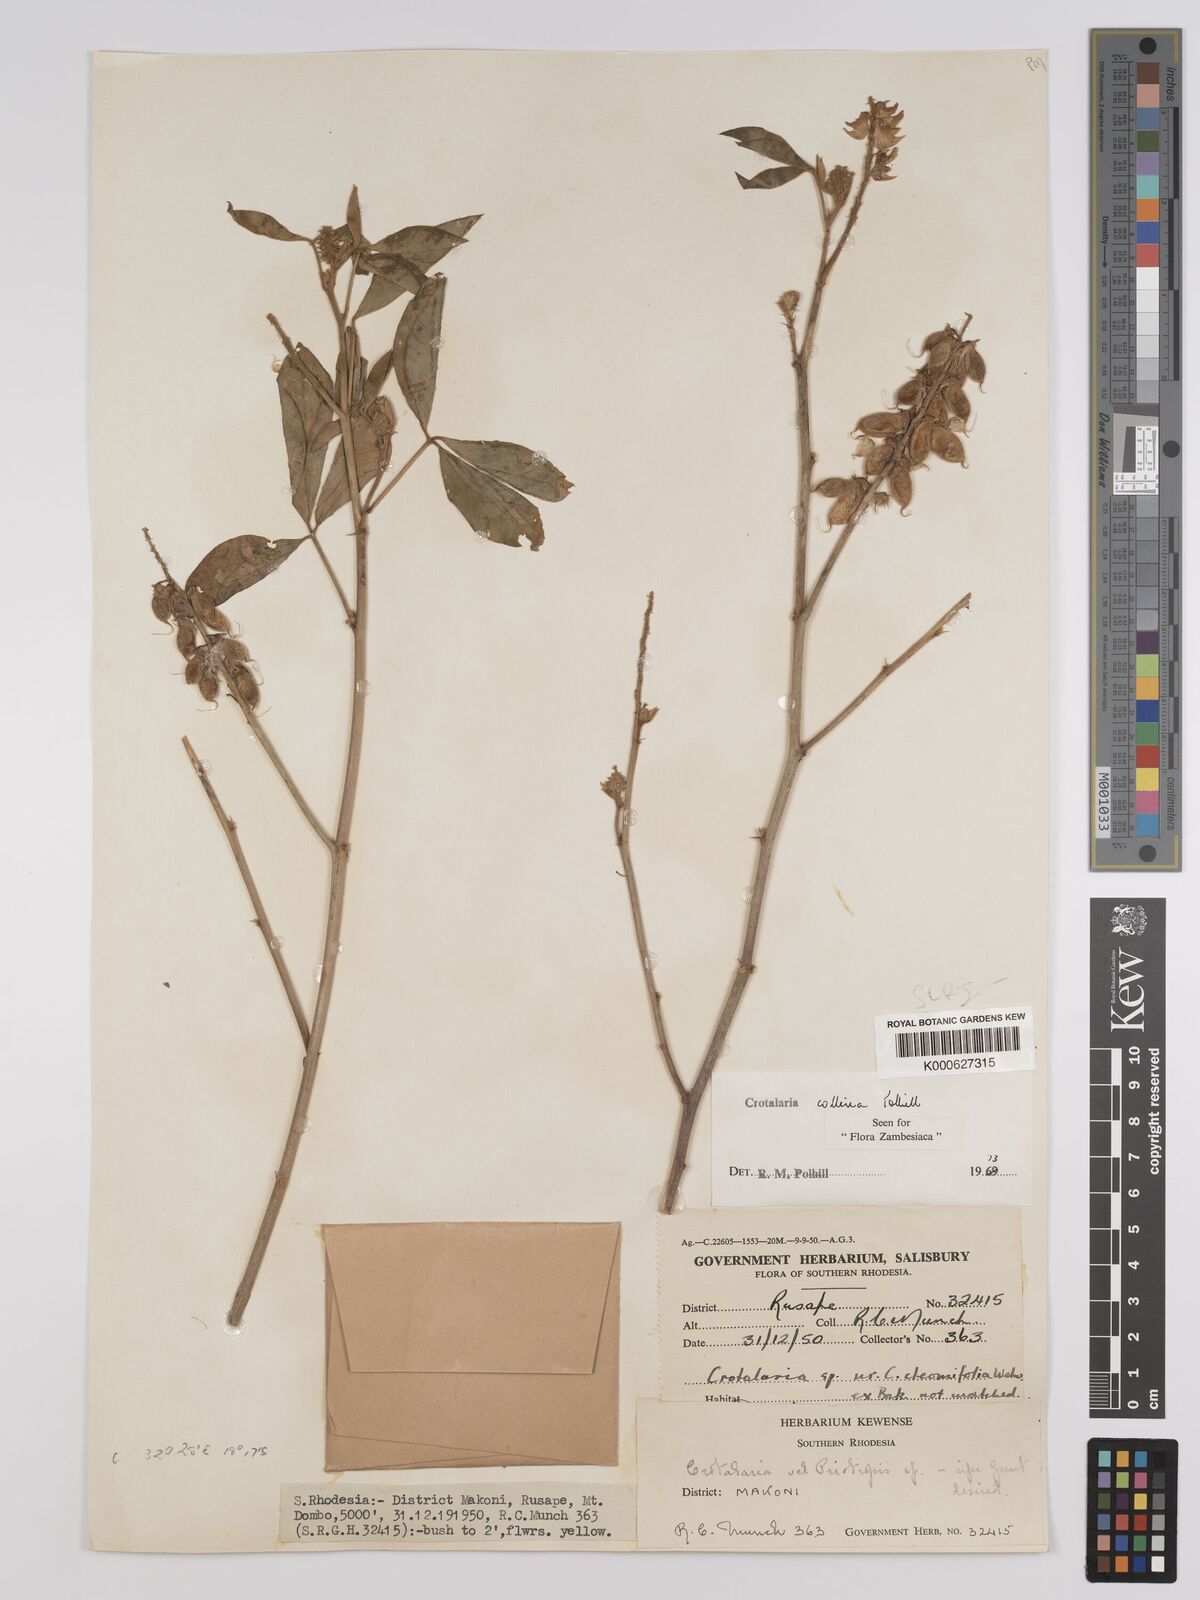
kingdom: Plantae
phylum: Tracheophyta
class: Magnoliopsida
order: Fabales
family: Fabaceae
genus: Crotalaria
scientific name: Crotalaria collina
